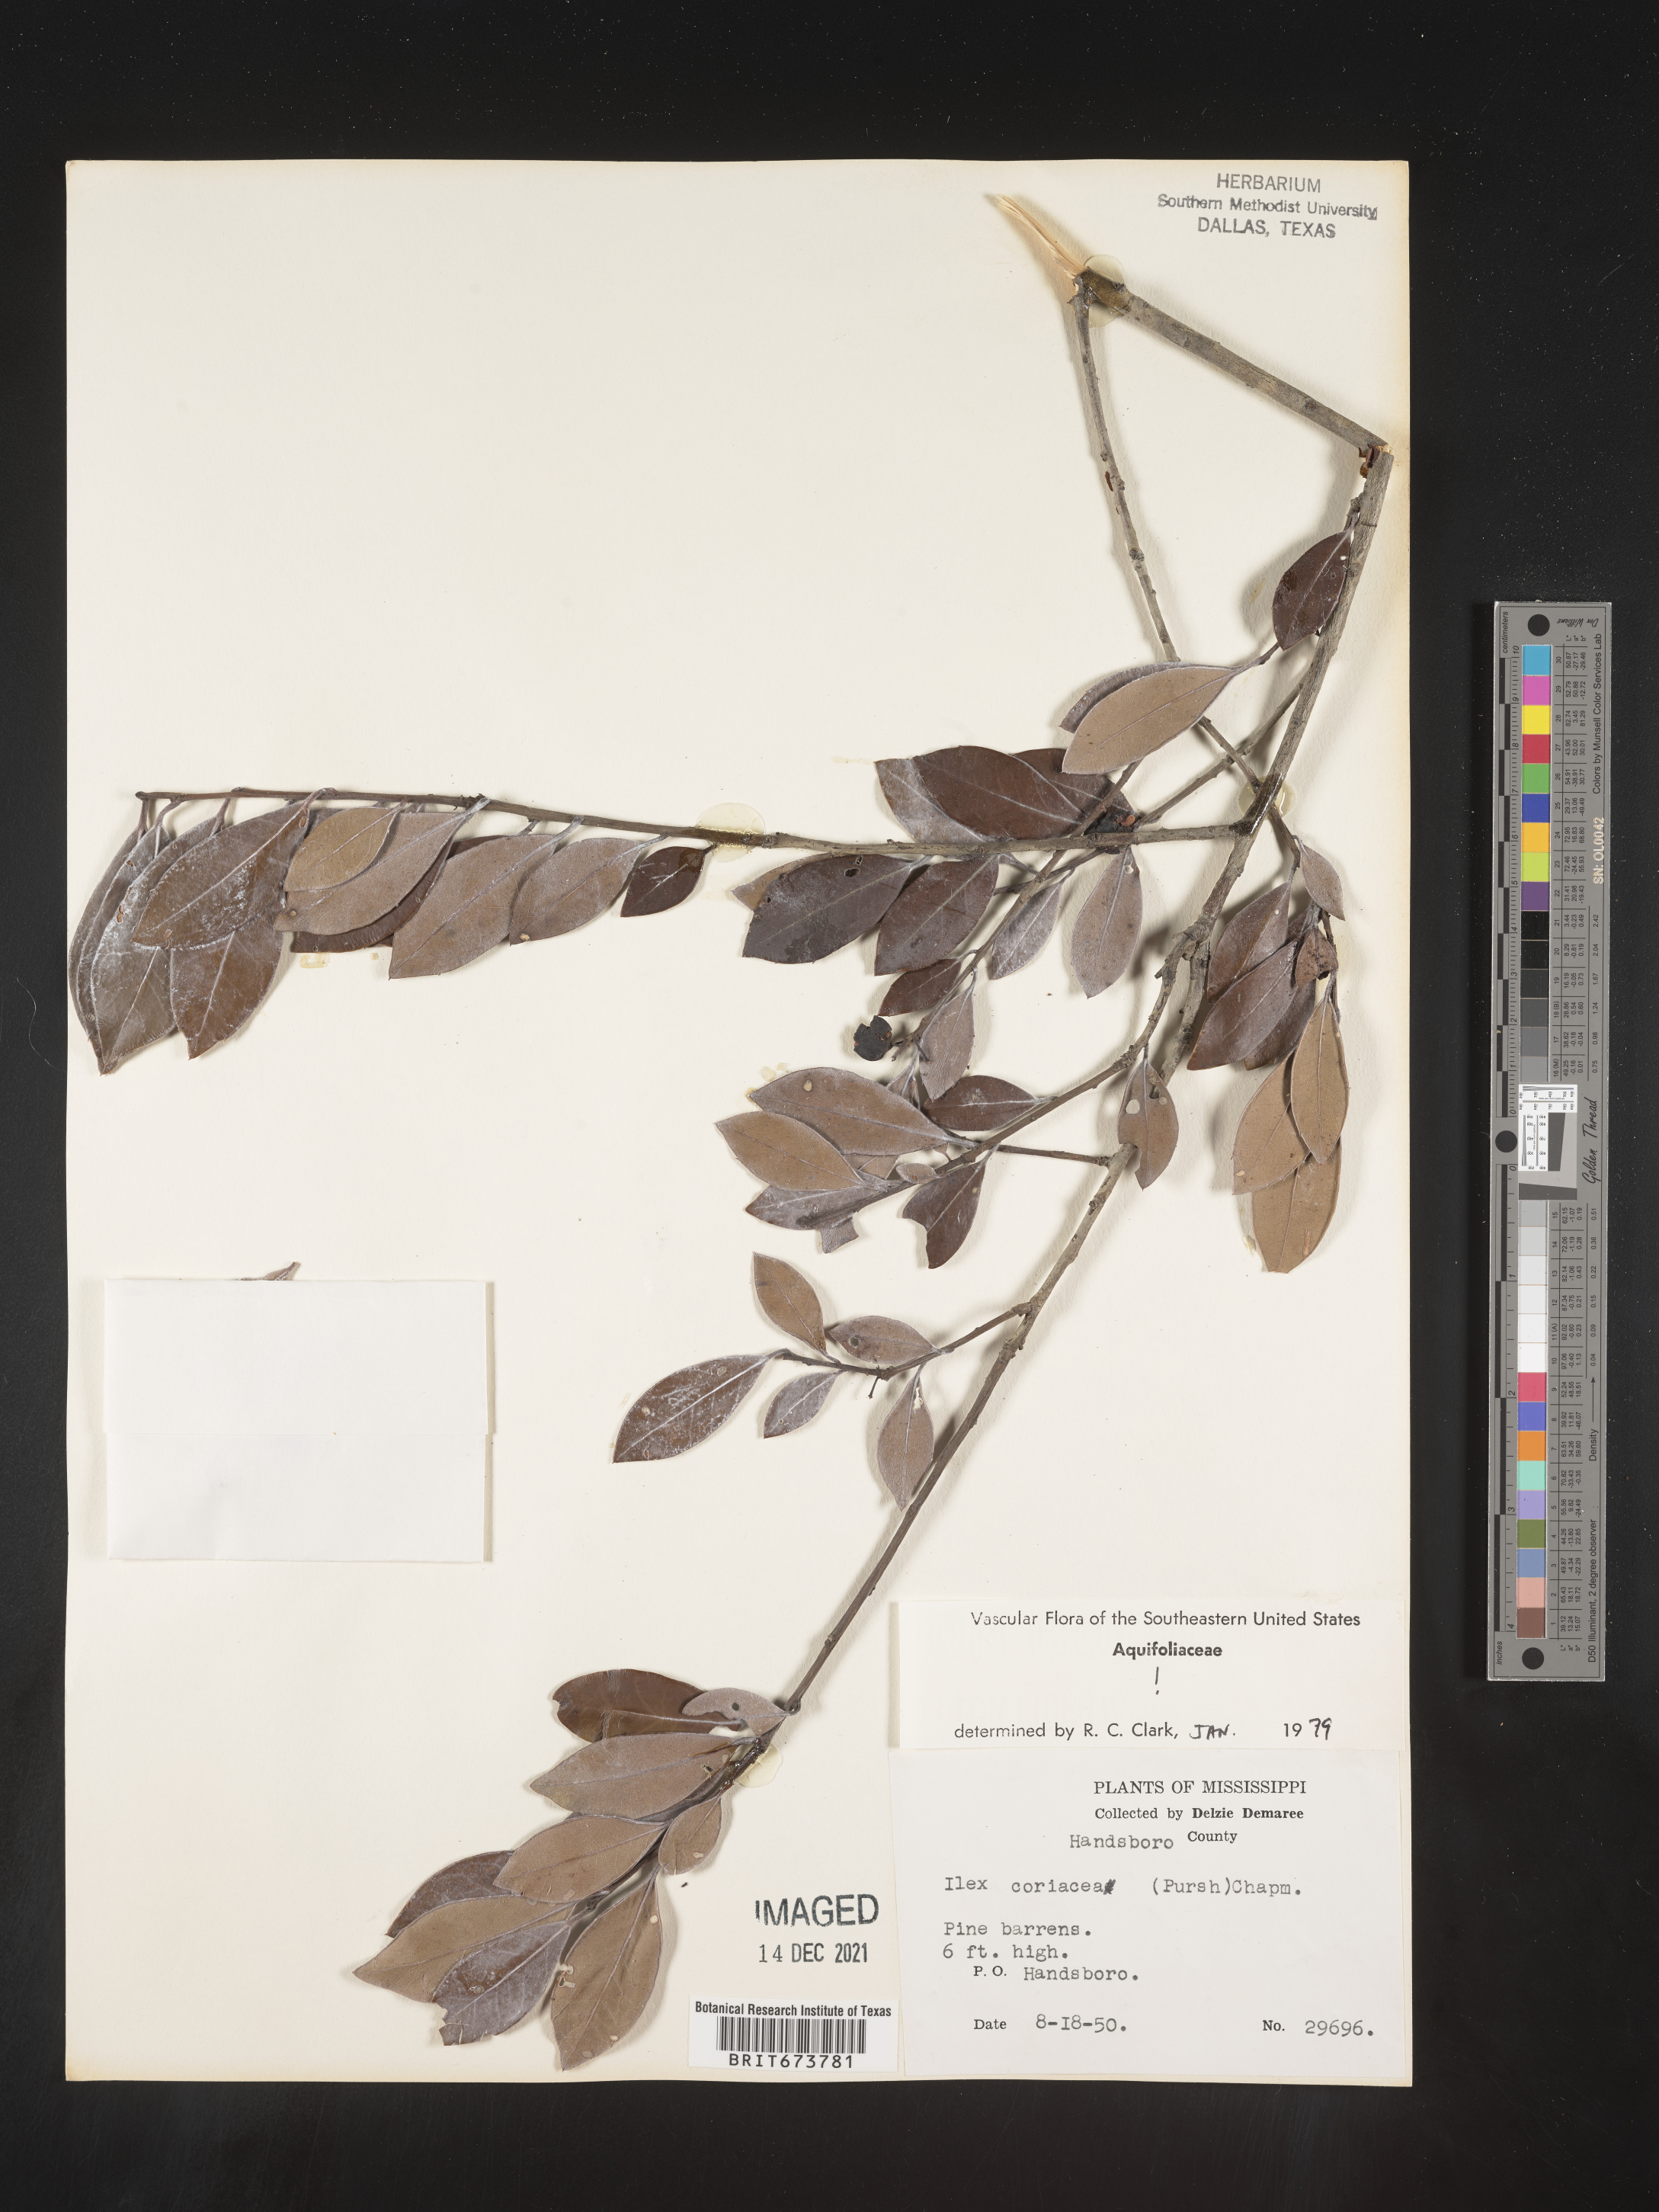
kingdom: Plantae
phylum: Tracheophyta
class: Magnoliopsida
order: Aquifoliales
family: Aquifoliaceae
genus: Ilex
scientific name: Ilex coriacea
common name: Sweet gallberry
